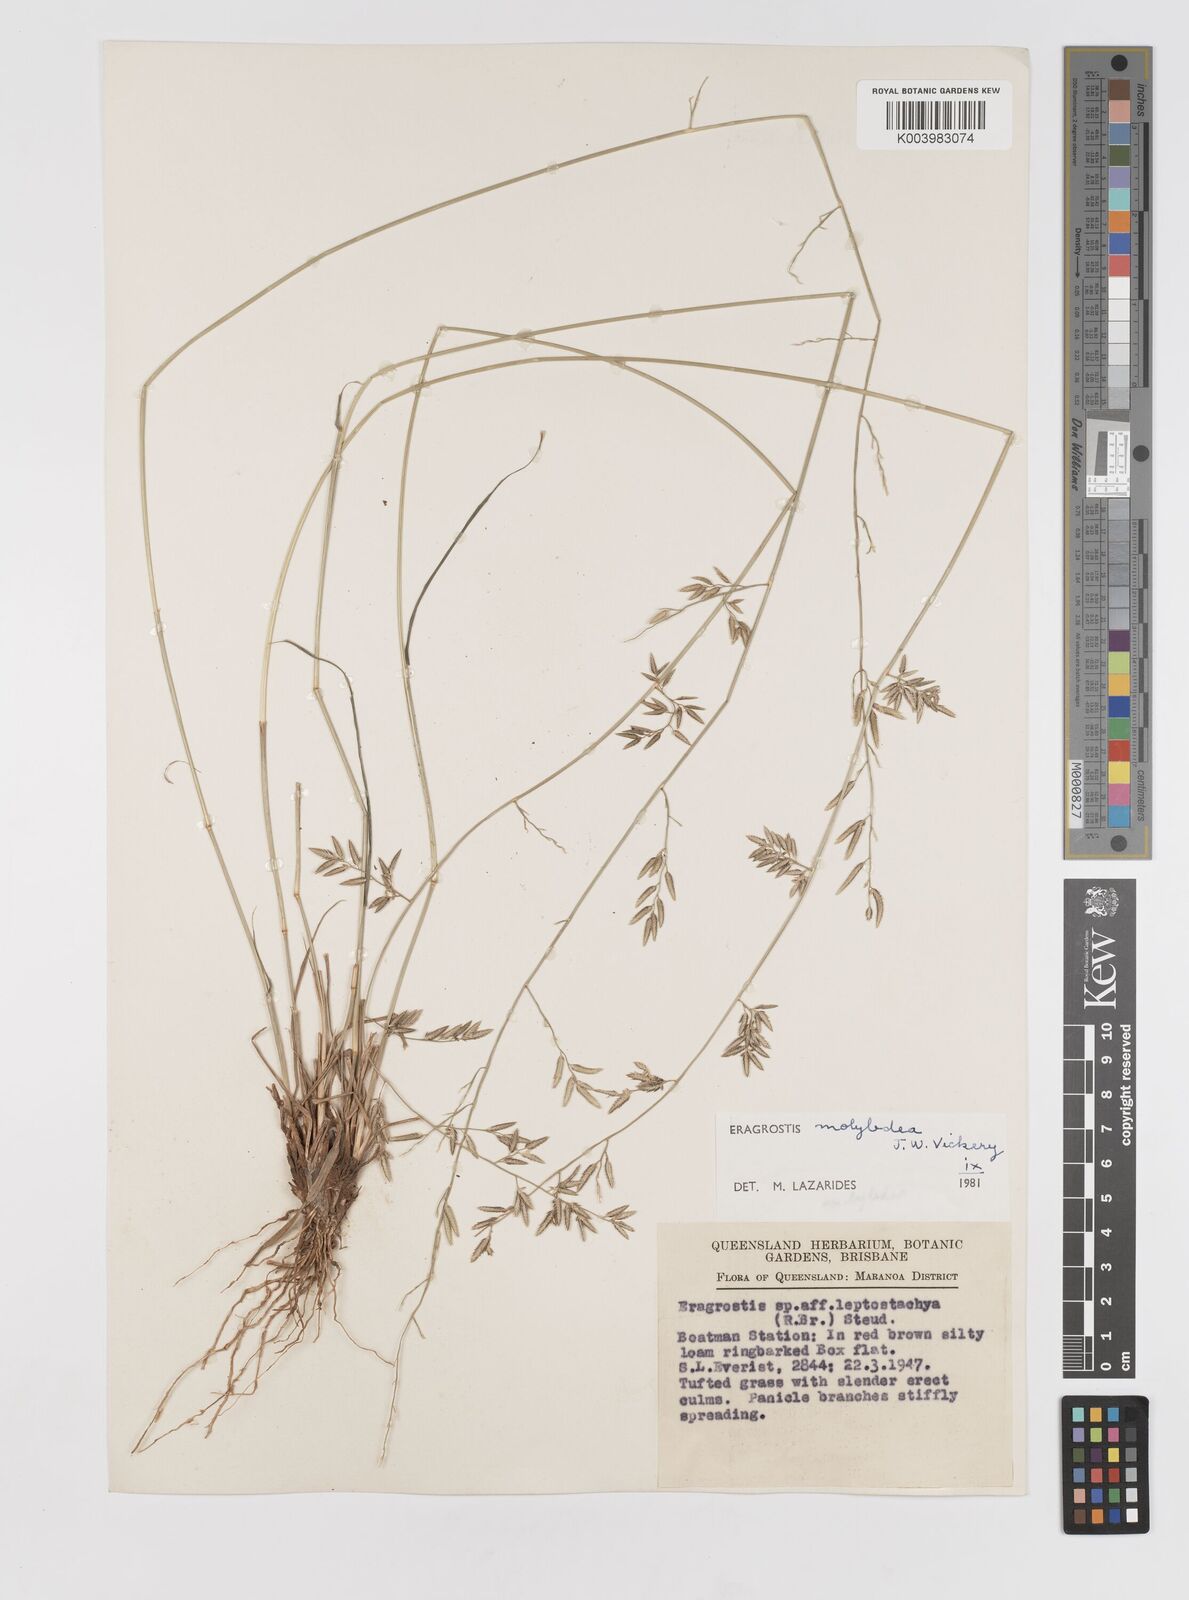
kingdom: Plantae
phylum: Tracheophyta
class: Liliopsida
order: Poales
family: Poaceae
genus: Eragrostis
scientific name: Eragrostis leptostachya
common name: Australian lovegrass
